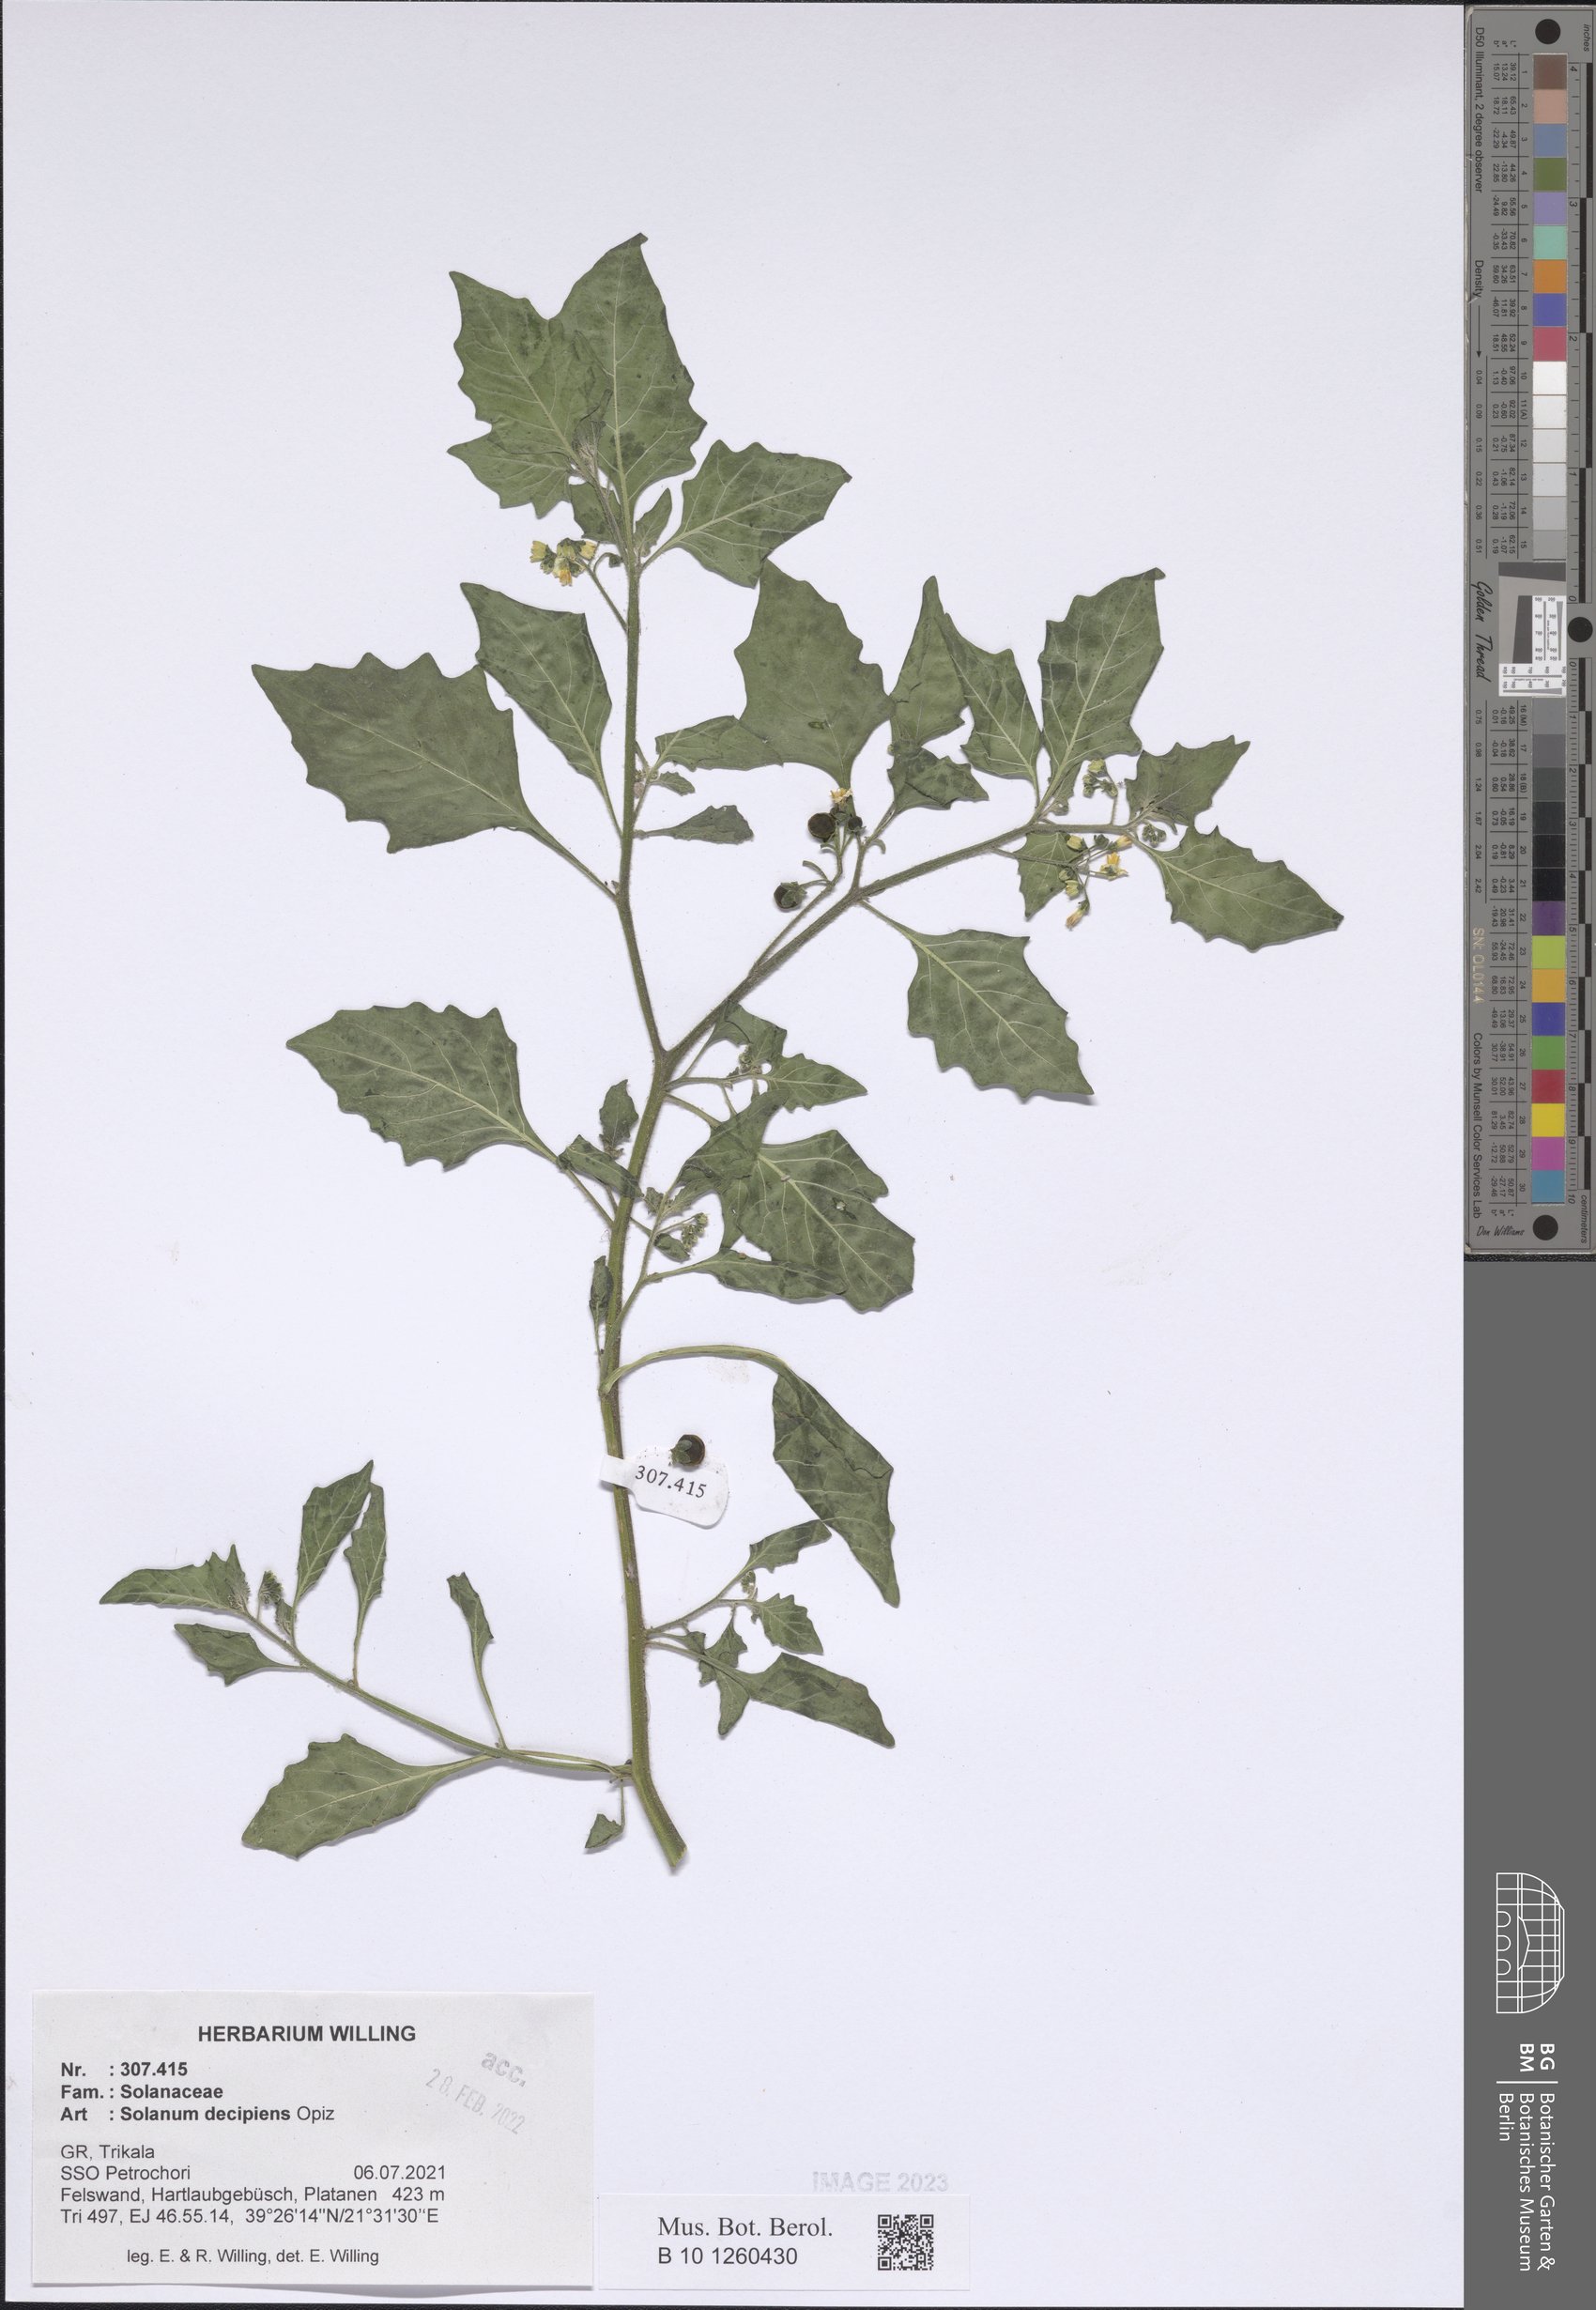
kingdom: Plantae
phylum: Tracheophyta
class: Magnoliopsida
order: Solanales
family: Solanaceae
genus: Solanum
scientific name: Solanum decipiens
